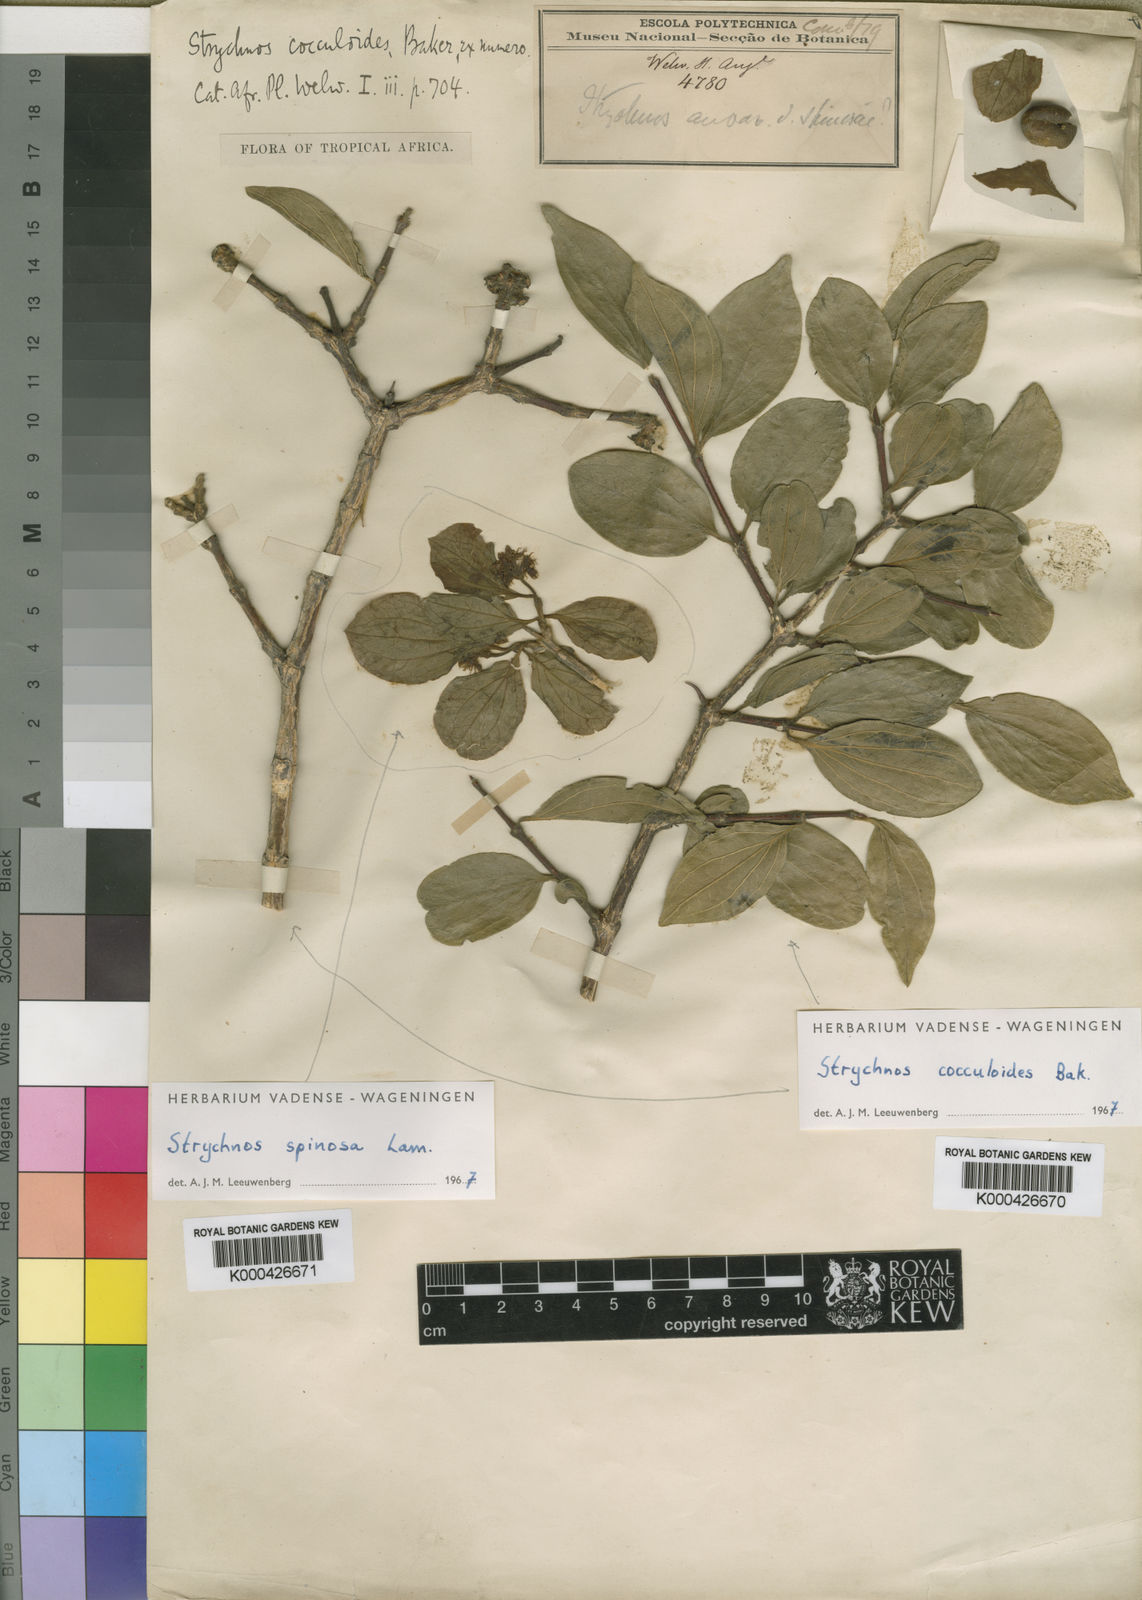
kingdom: Plantae
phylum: Tracheophyta
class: Magnoliopsida
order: Gentianales
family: Loganiaceae
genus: Strychnos
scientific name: Strychnos spinosa
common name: Natal orange
